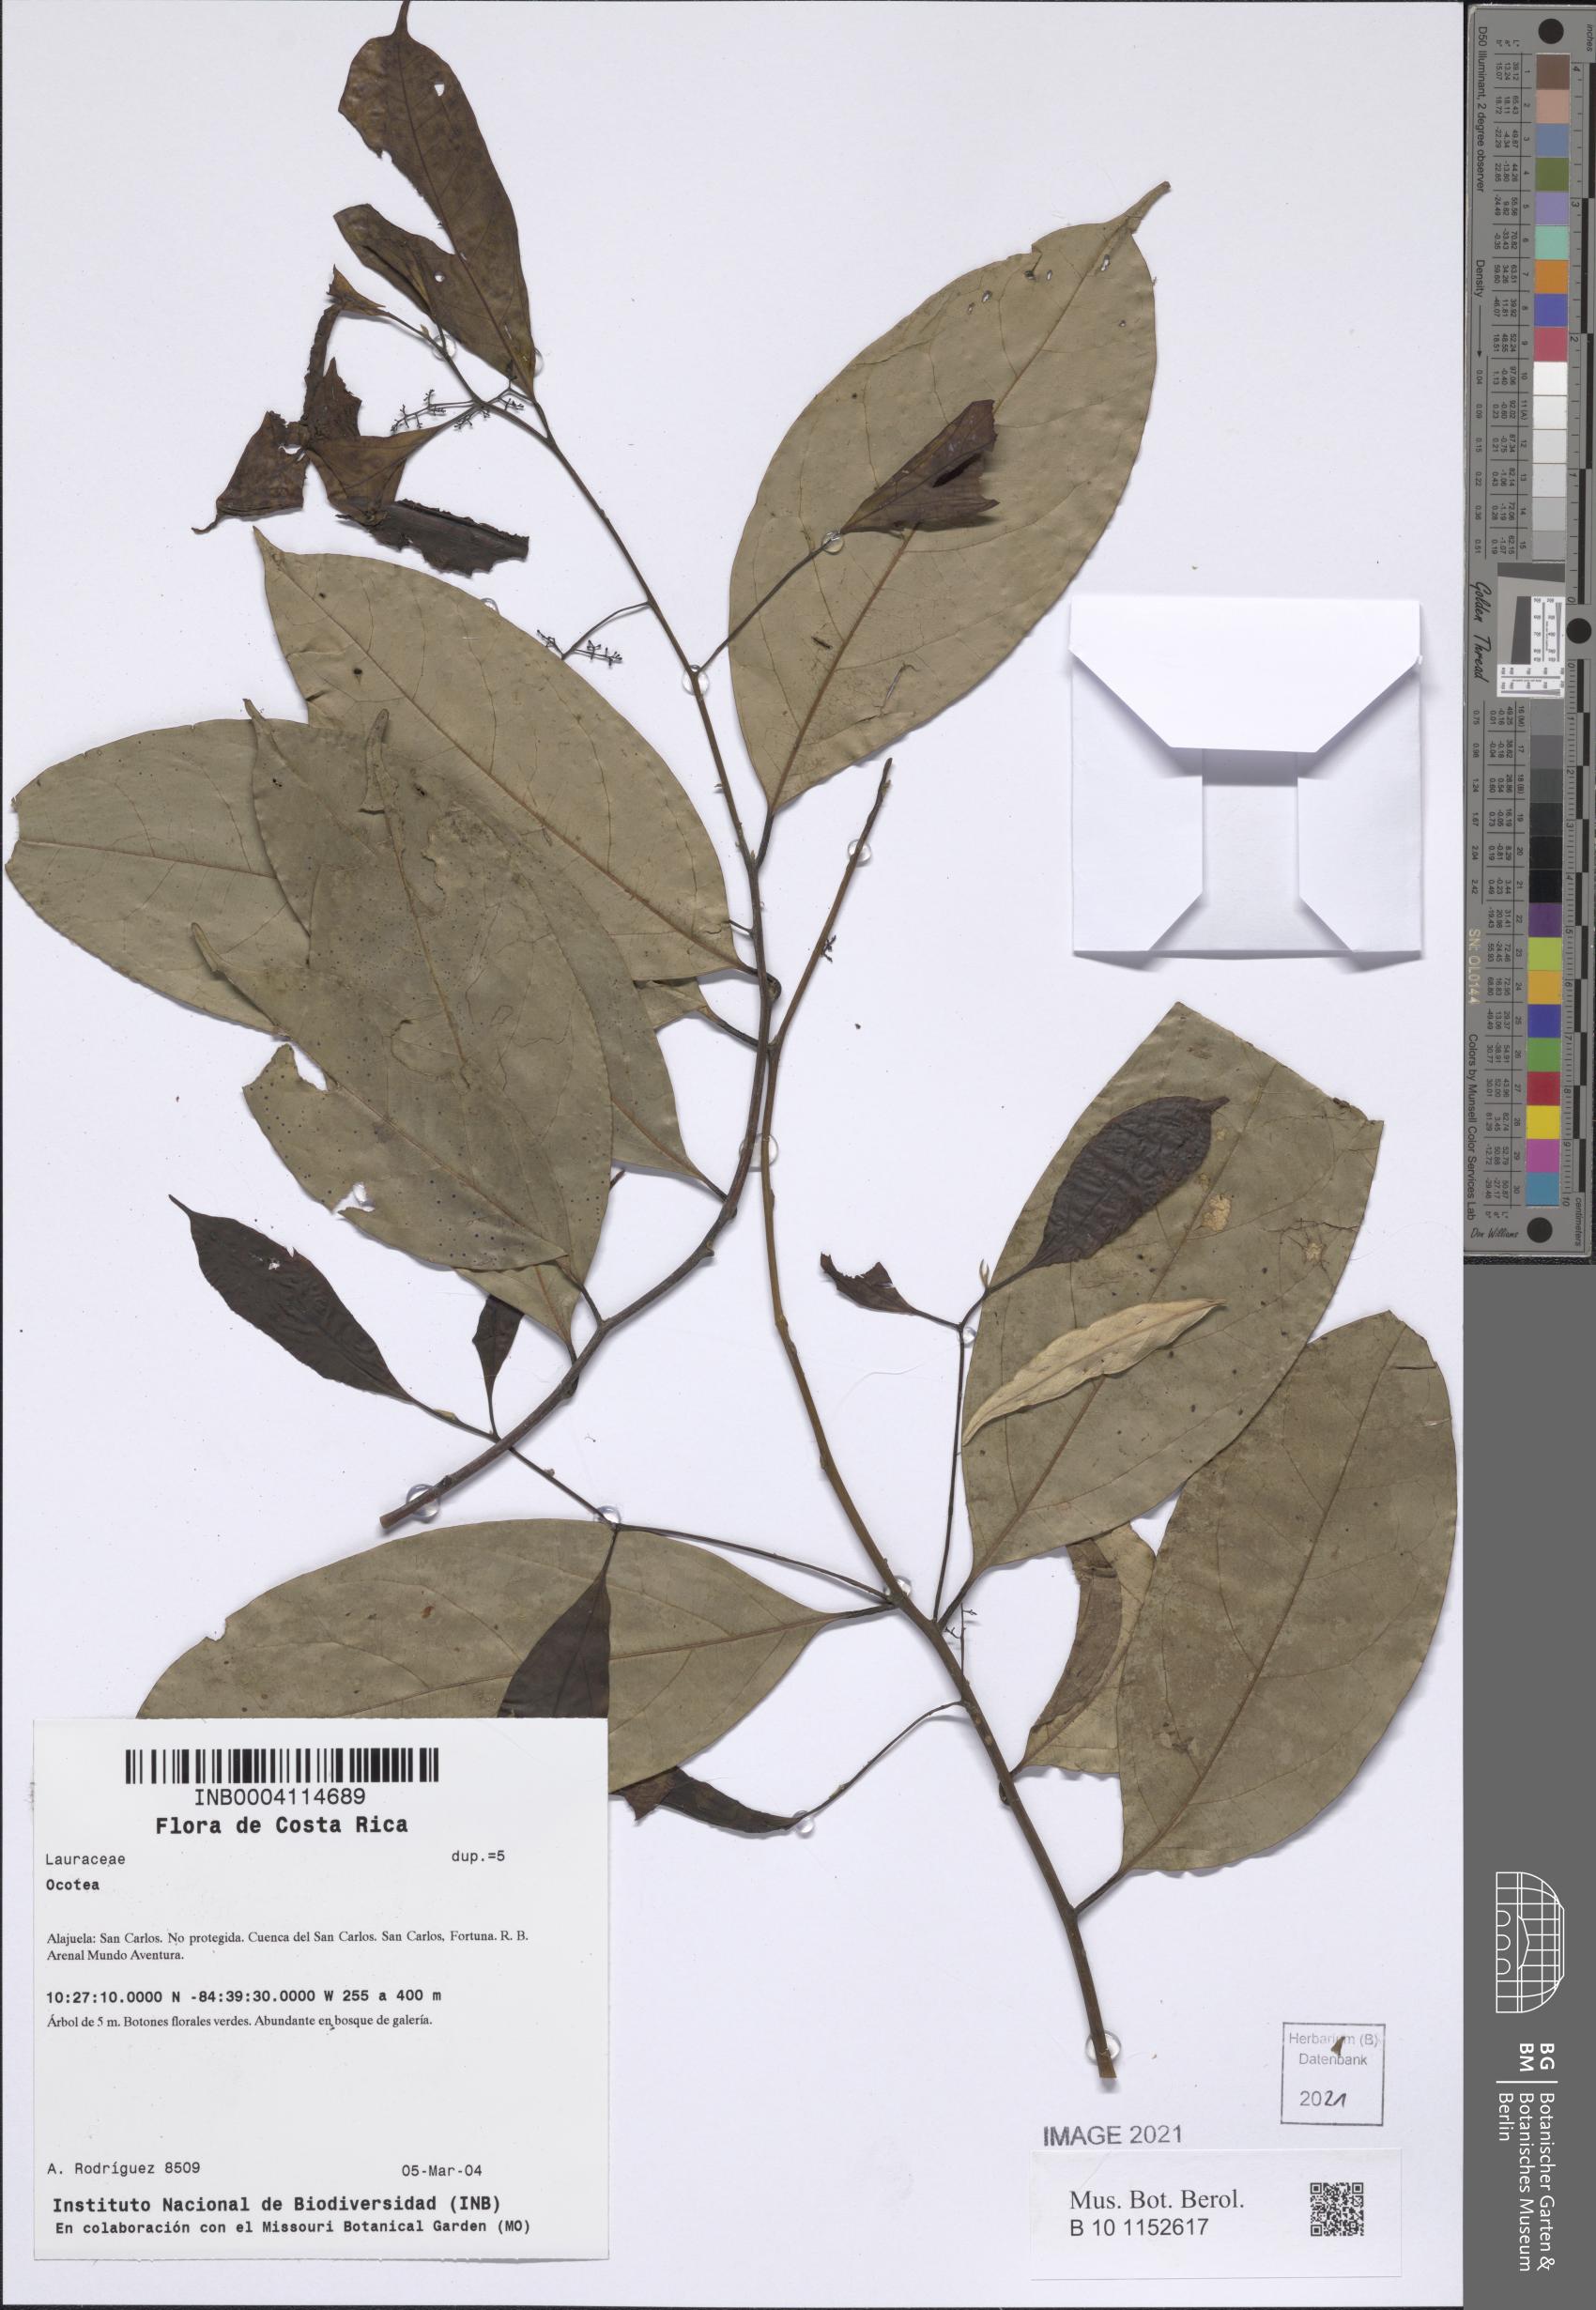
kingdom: Plantae
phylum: Tracheophyta
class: Magnoliopsida
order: Laurales
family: Lauraceae
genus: Ocotea
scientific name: Ocotea
